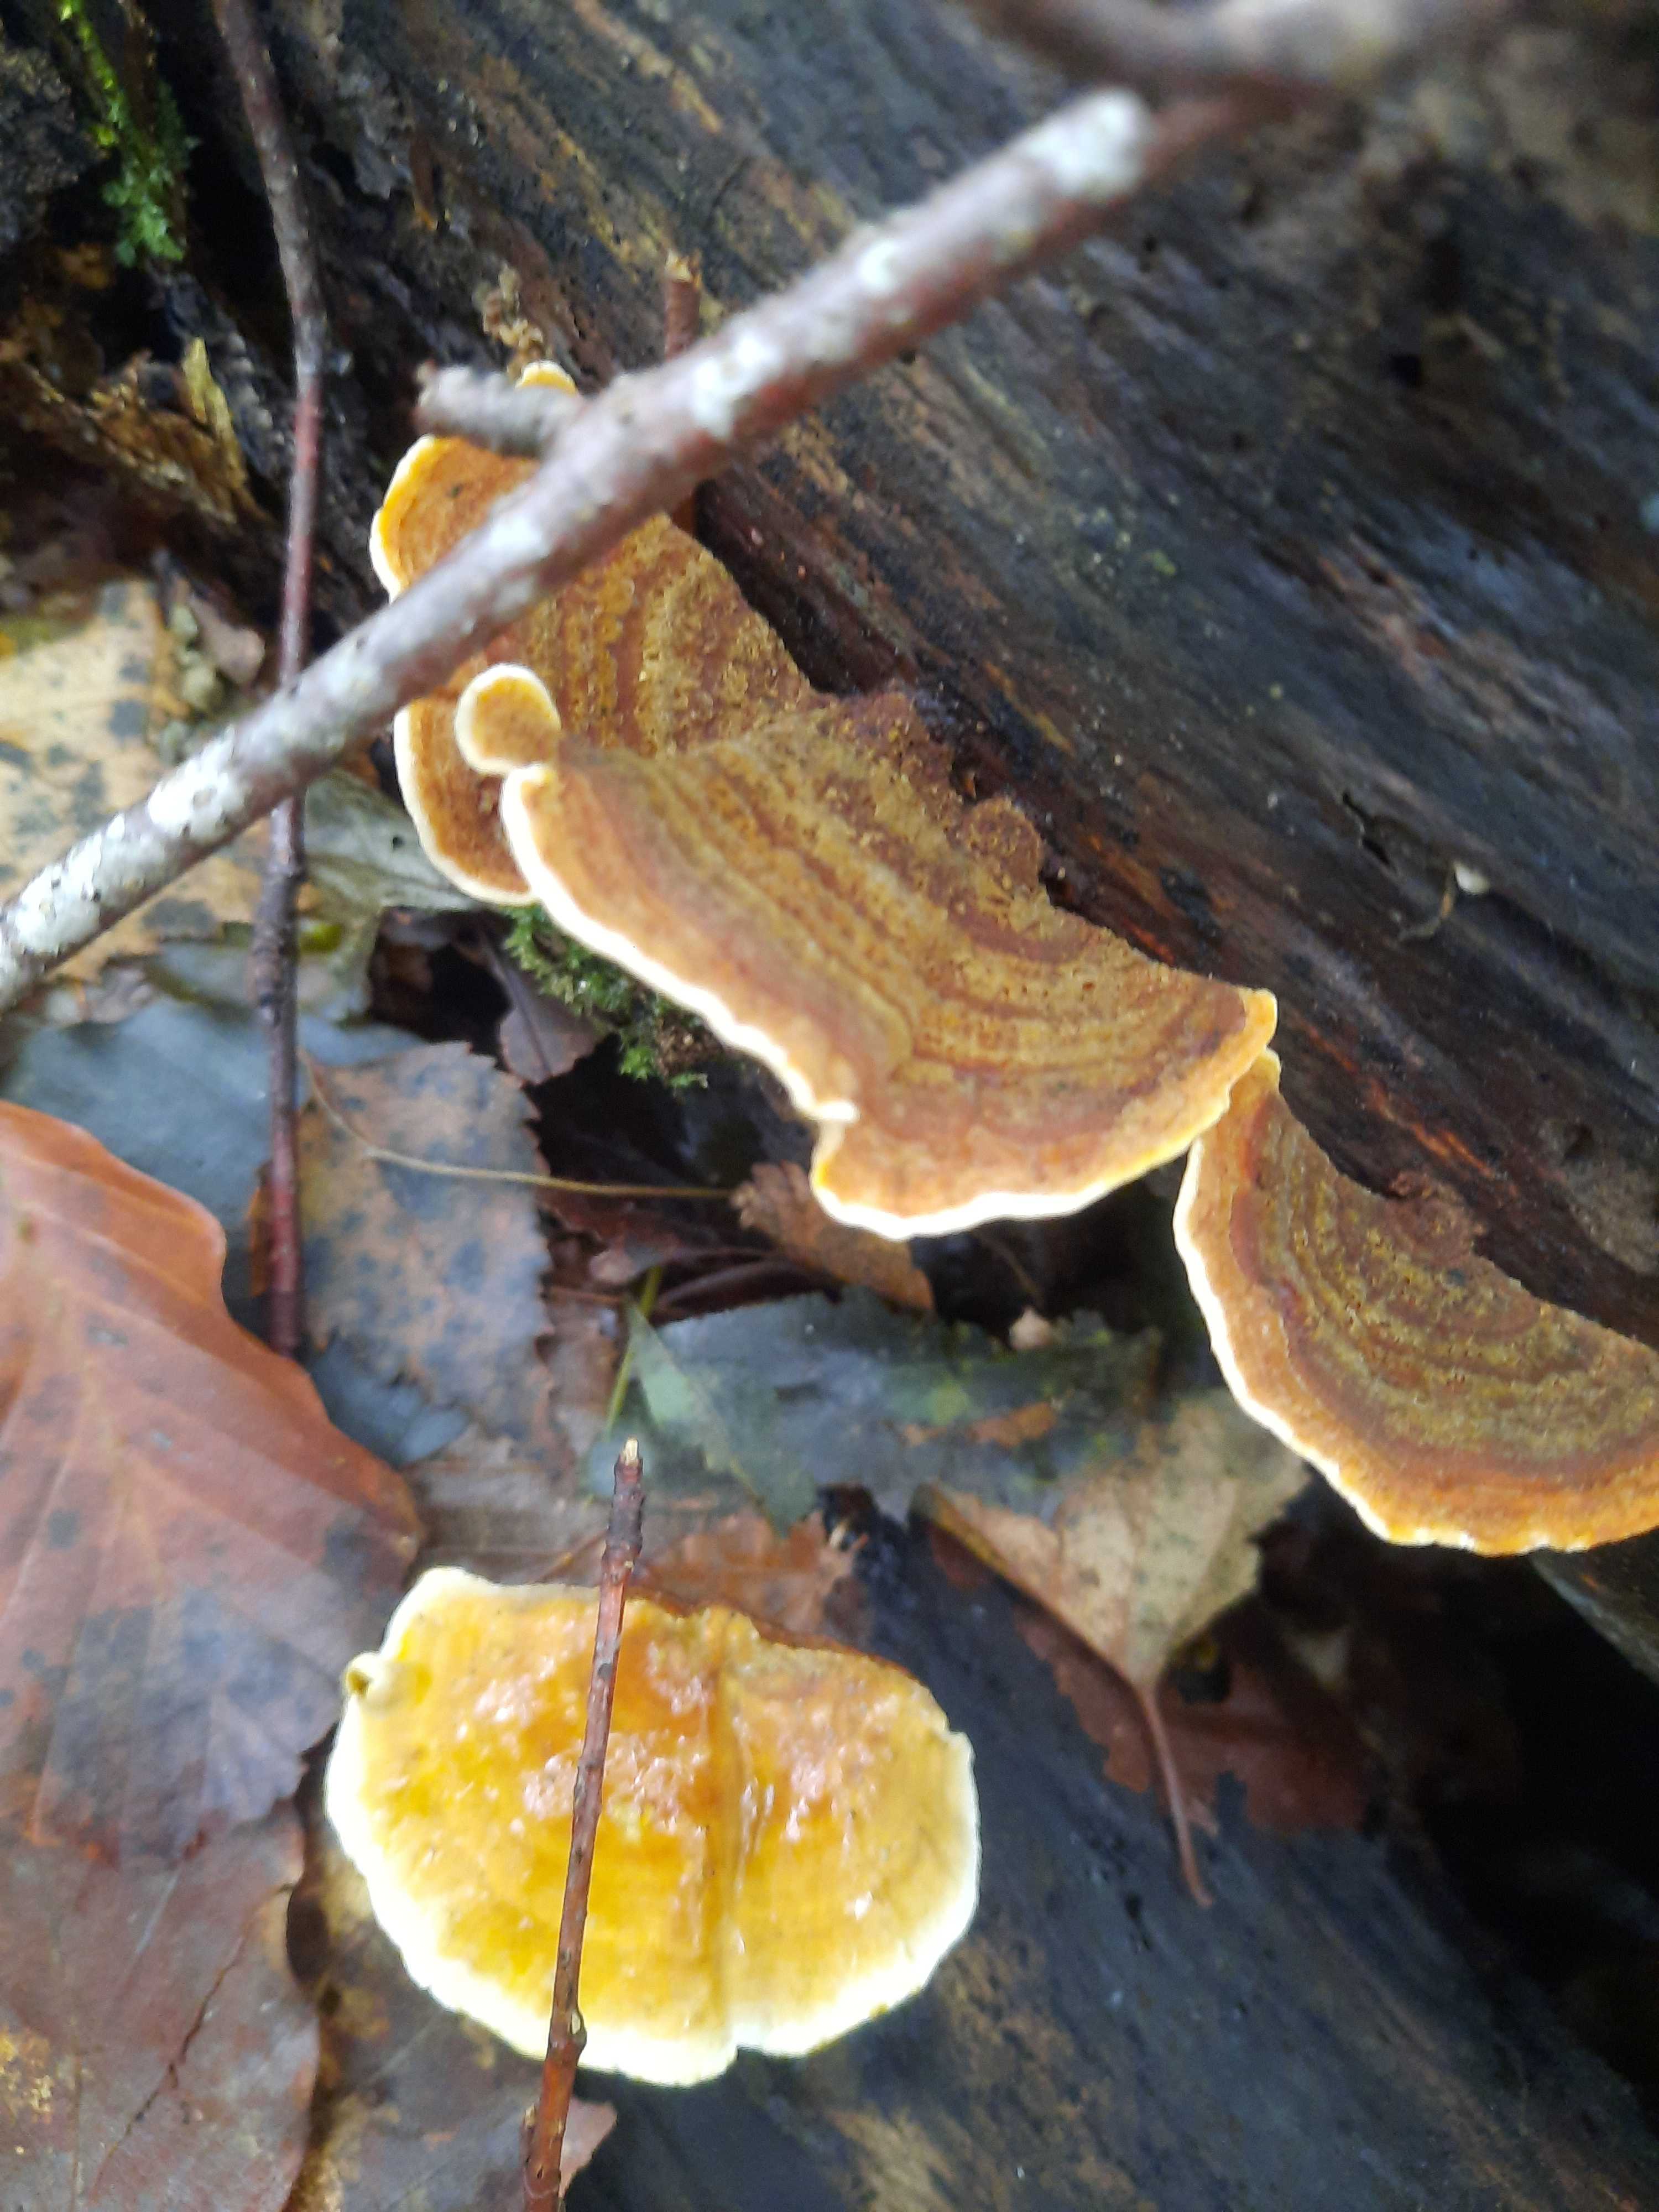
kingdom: Fungi
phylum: Basidiomycota
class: Agaricomycetes
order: Russulales
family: Stereaceae
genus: Stereum
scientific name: Stereum subtomentosum
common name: smuk lædersvamp
